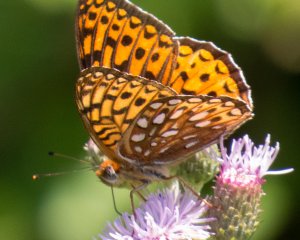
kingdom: Animalia
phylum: Arthropoda
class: Insecta
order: Lepidoptera
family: Nymphalidae
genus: Speyeria
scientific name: Speyeria atlantis
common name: Atlantis Fritillary
